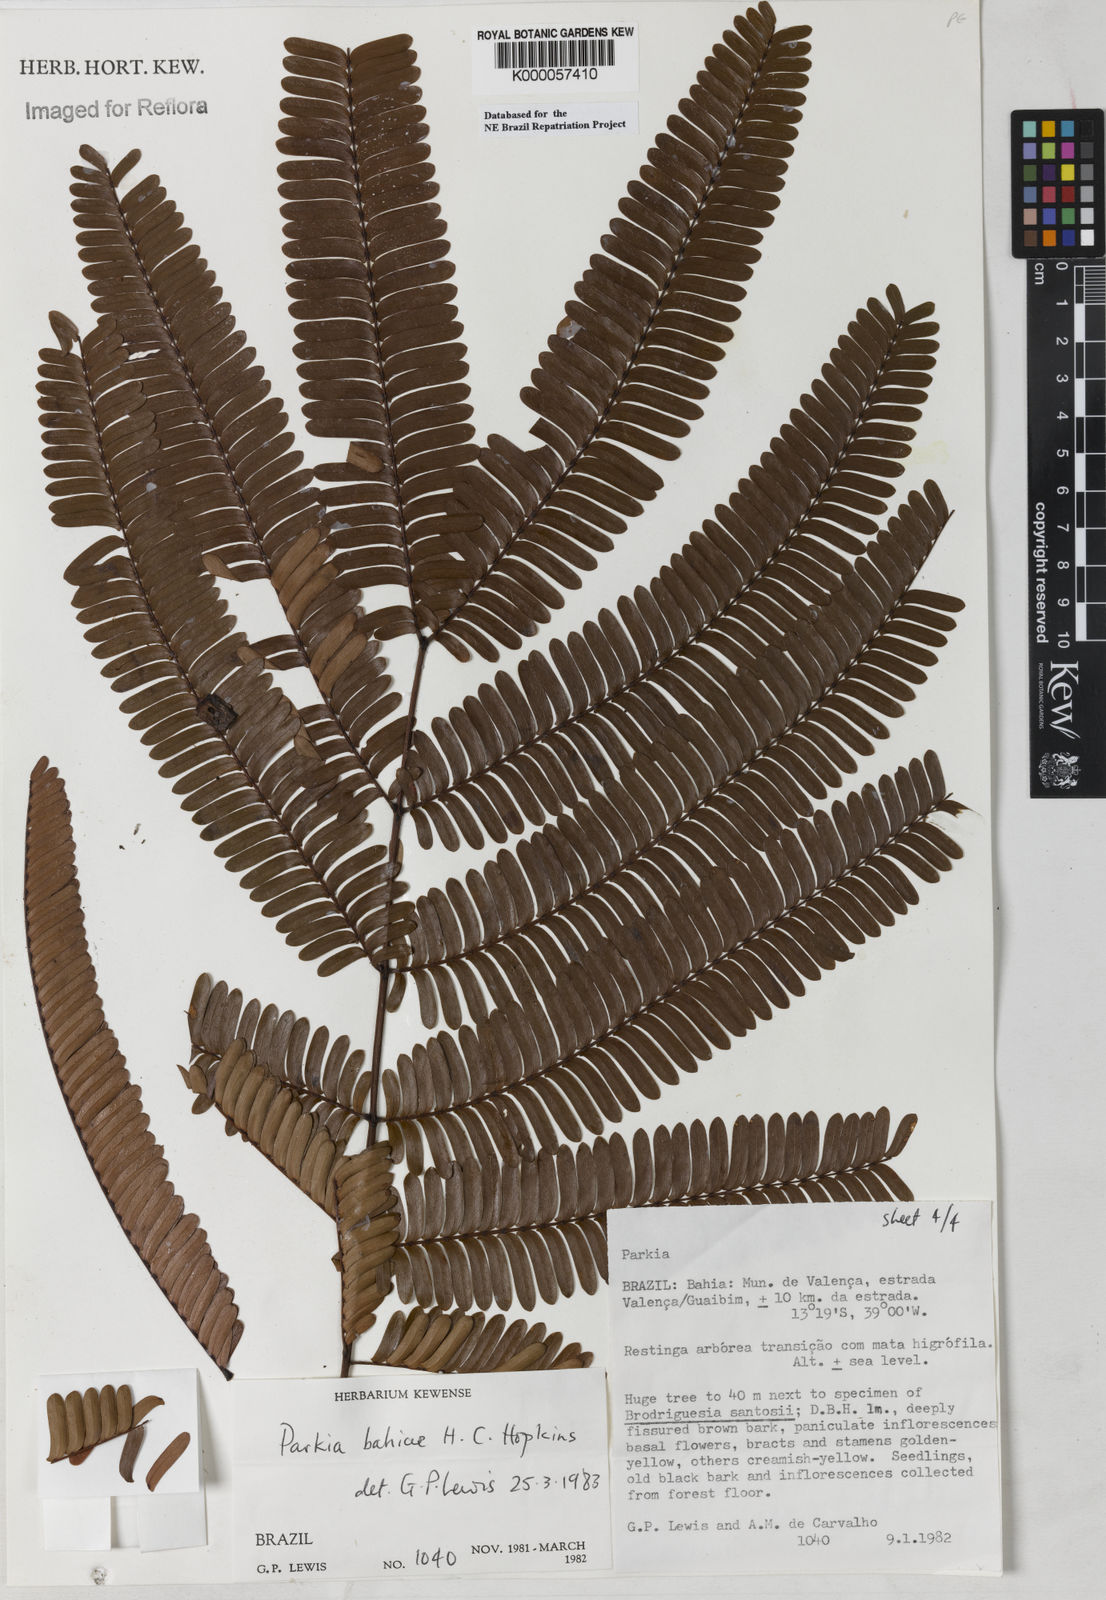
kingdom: Plantae
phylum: Tracheophyta
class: Magnoliopsida
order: Fabales
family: Fabaceae
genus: Parkia
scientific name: Parkia bahiae
